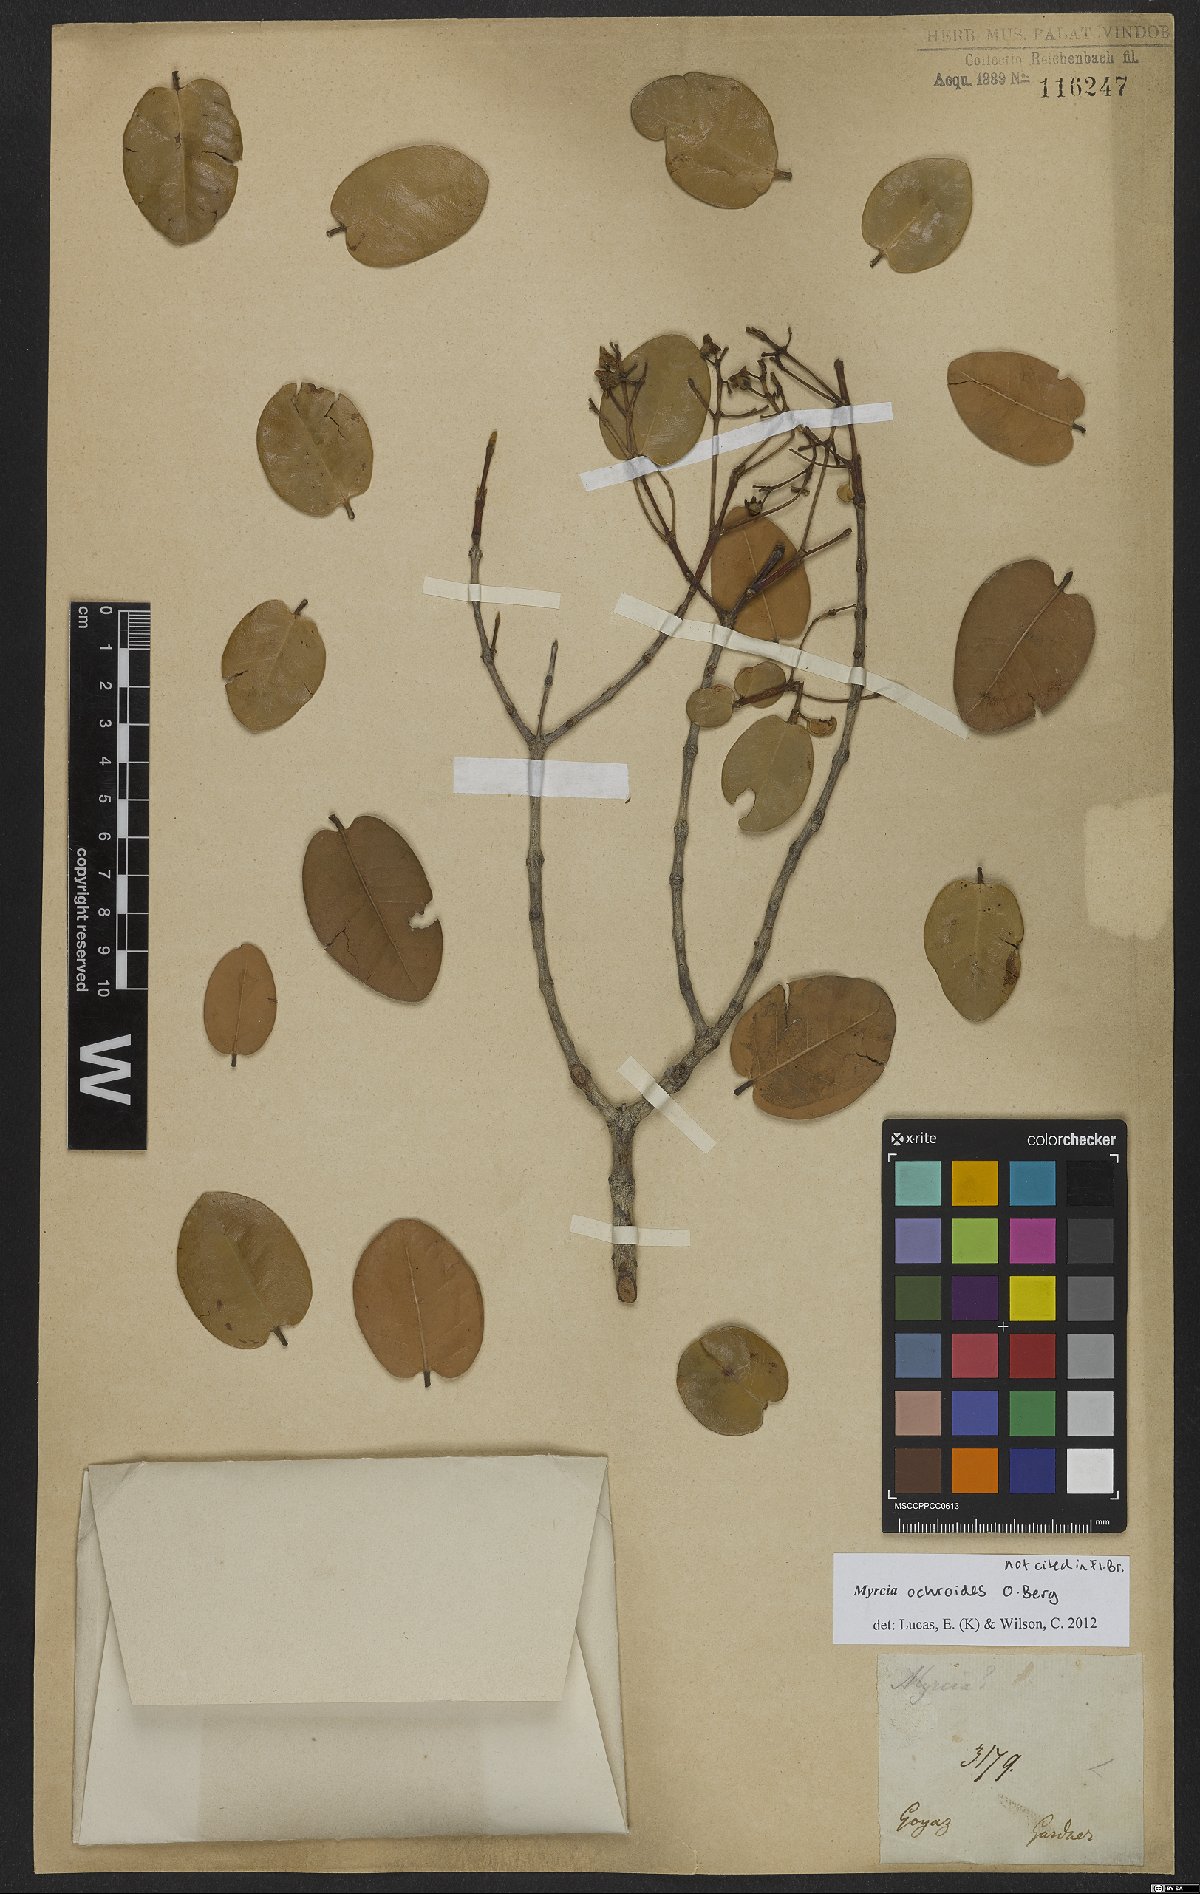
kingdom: Plantae
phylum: Tracheophyta
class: Magnoliopsida
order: Myrtales
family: Myrtaceae
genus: Myrcia
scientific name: Myrcia ochroides
